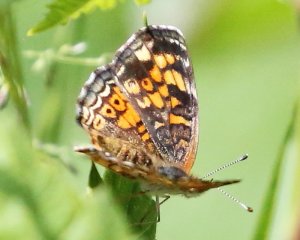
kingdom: Animalia
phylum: Arthropoda
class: Insecta
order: Lepidoptera
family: Nymphalidae
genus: Phyciodes
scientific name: Phyciodes tharos
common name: Pearl Crescent
